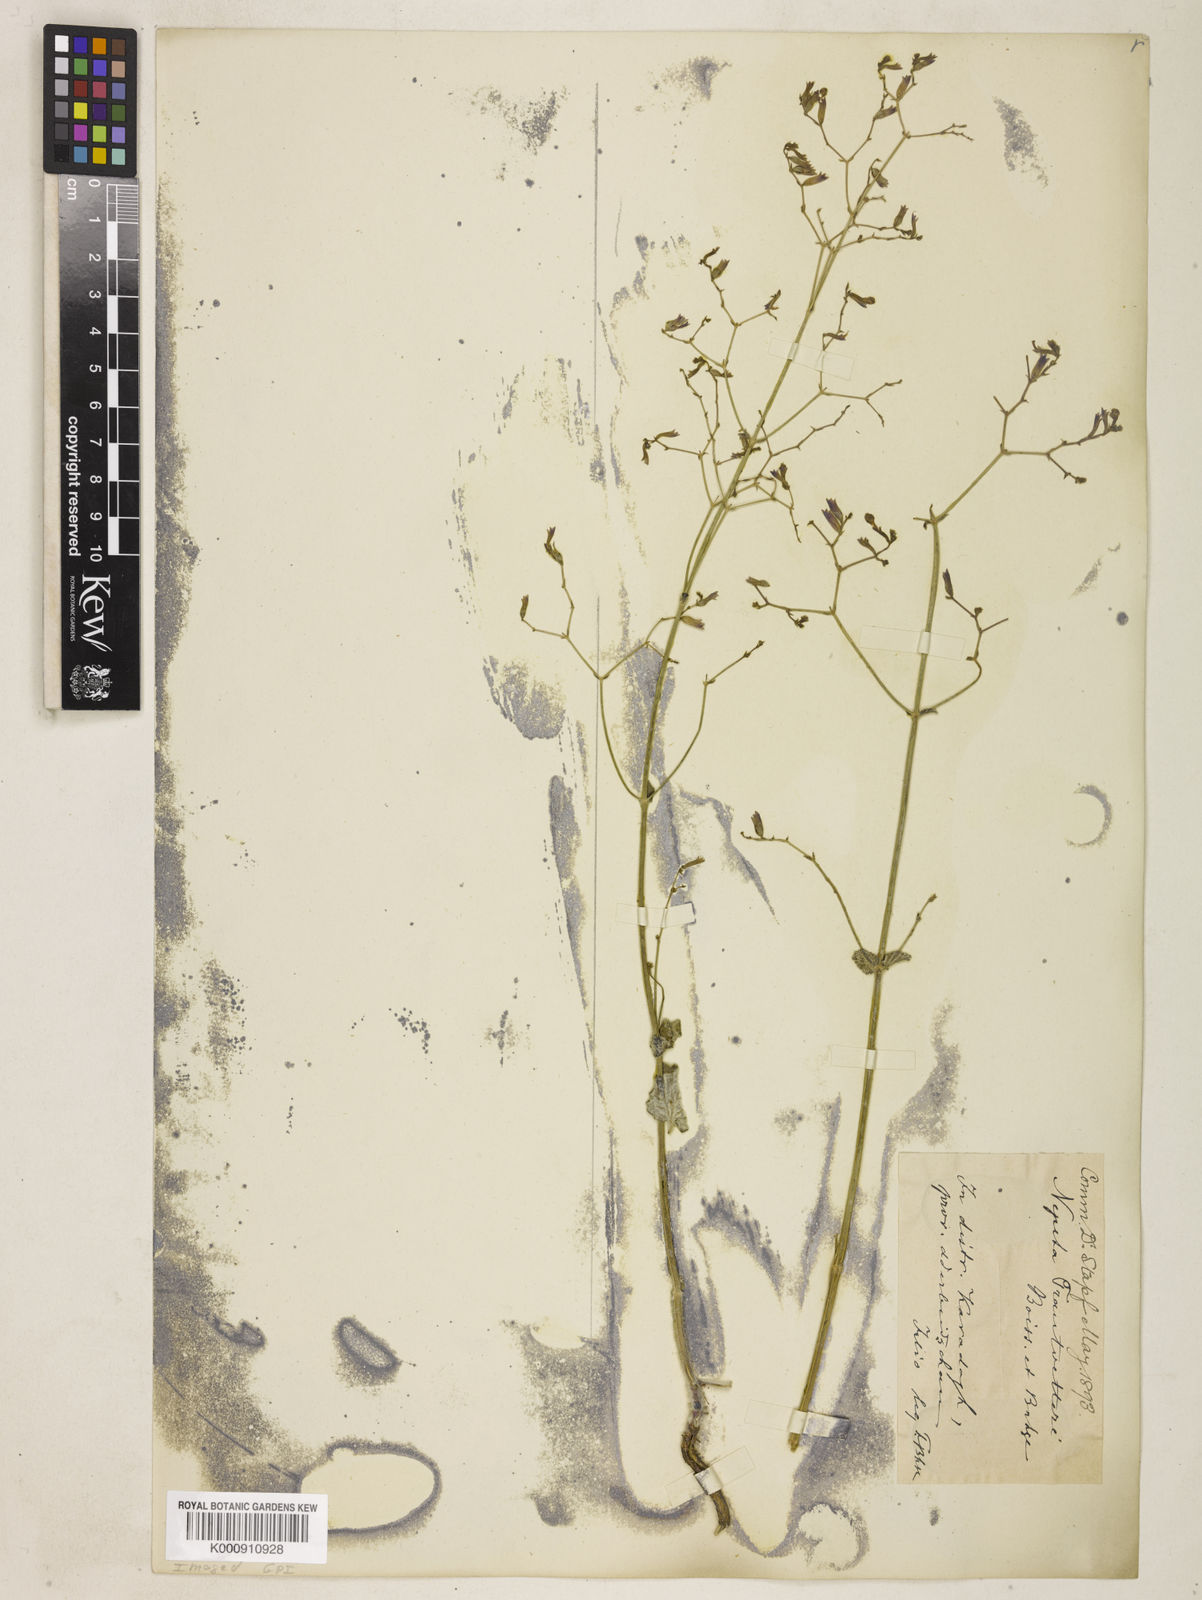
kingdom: Plantae
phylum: Tracheophyta
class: Magnoliopsida
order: Lamiales
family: Lamiaceae
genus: Nepeta
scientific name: Nepeta trautvetteri
